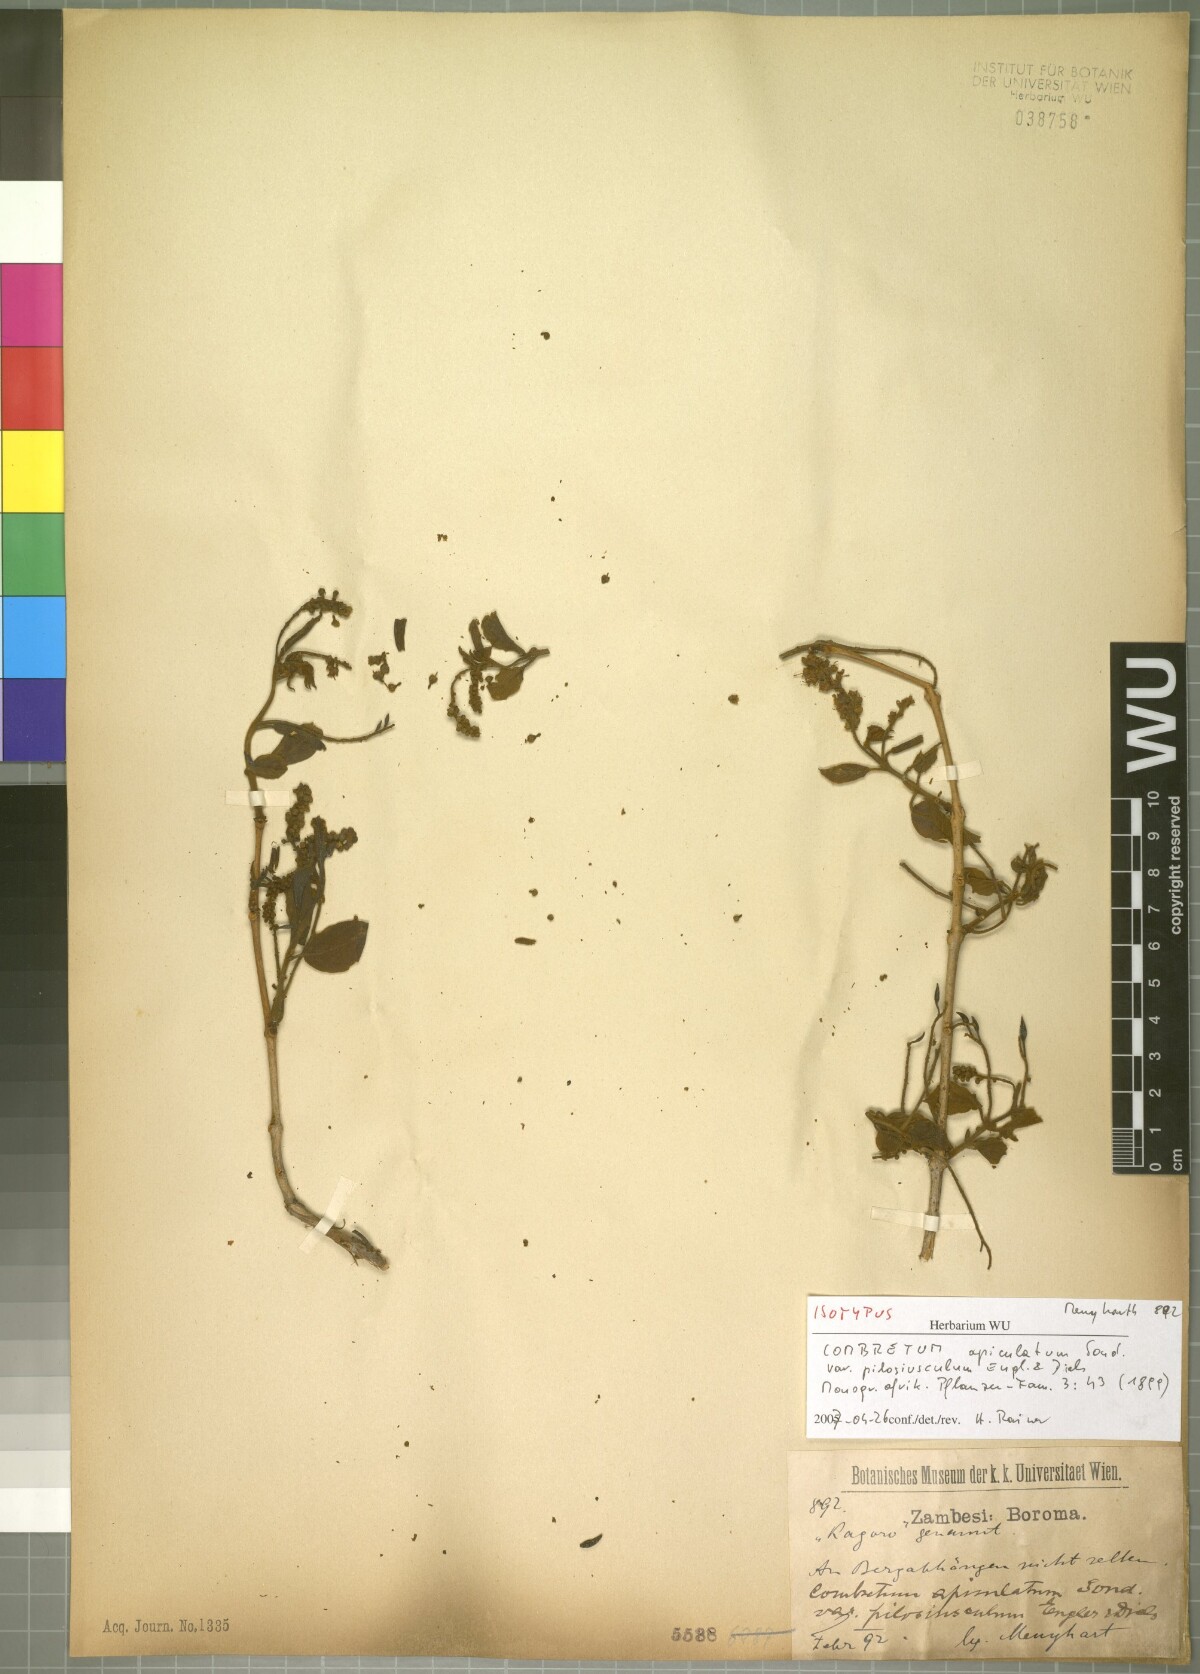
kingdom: Plantae
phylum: Tracheophyta
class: Magnoliopsida
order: Myrtales
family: Combretaceae
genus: Combretum
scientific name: Combretum apiculatum
